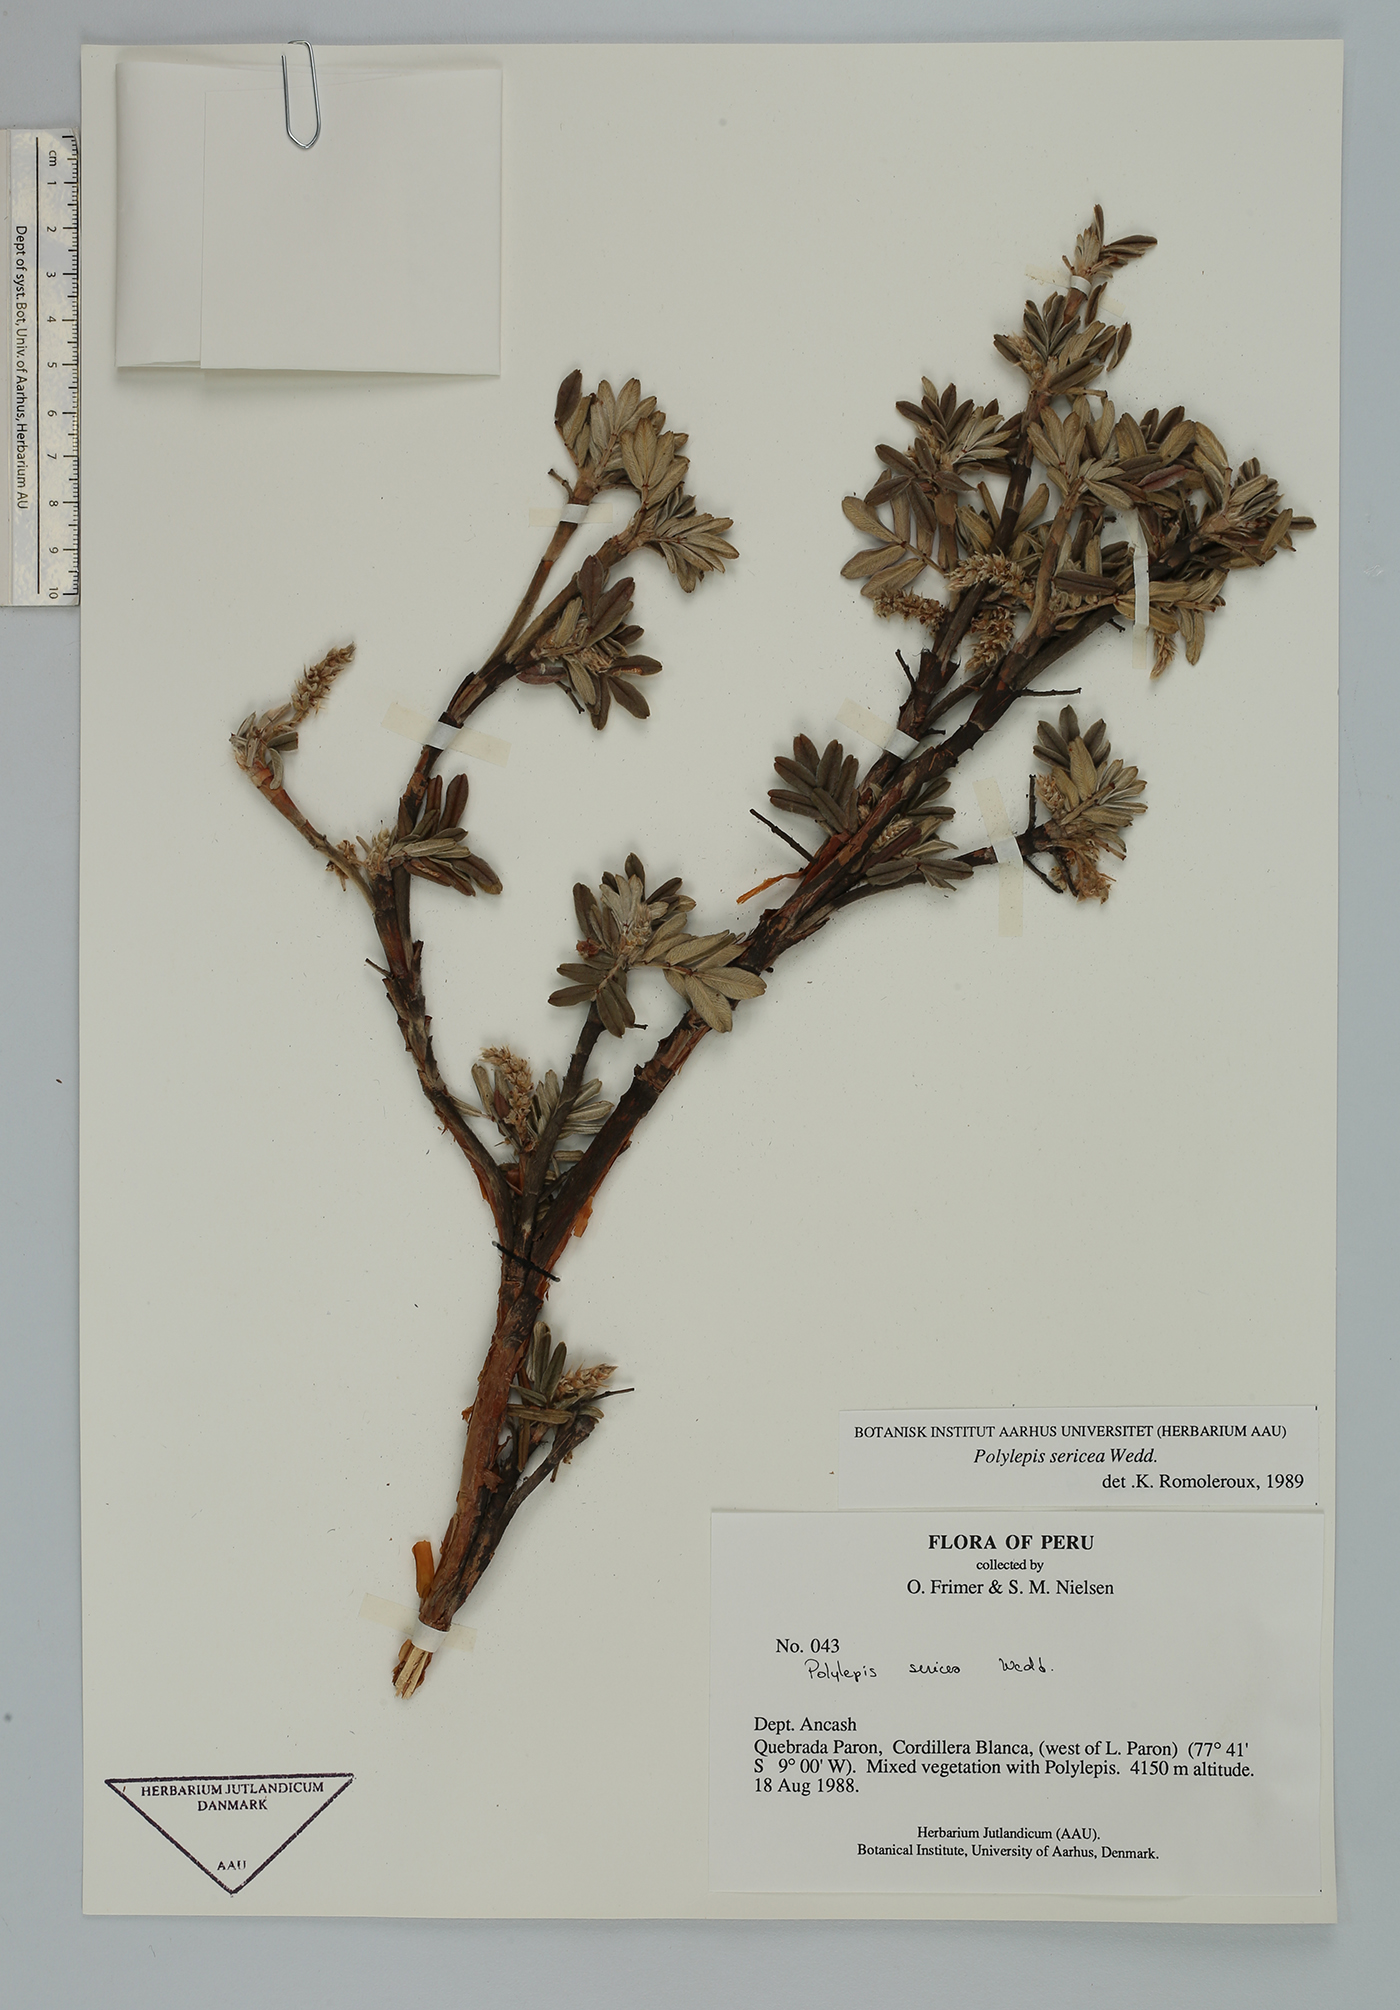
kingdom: Plantae
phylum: Tracheophyta
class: Magnoliopsida
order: Rosales
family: Rosaceae
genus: Polylepis
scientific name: Polylepis albicans
